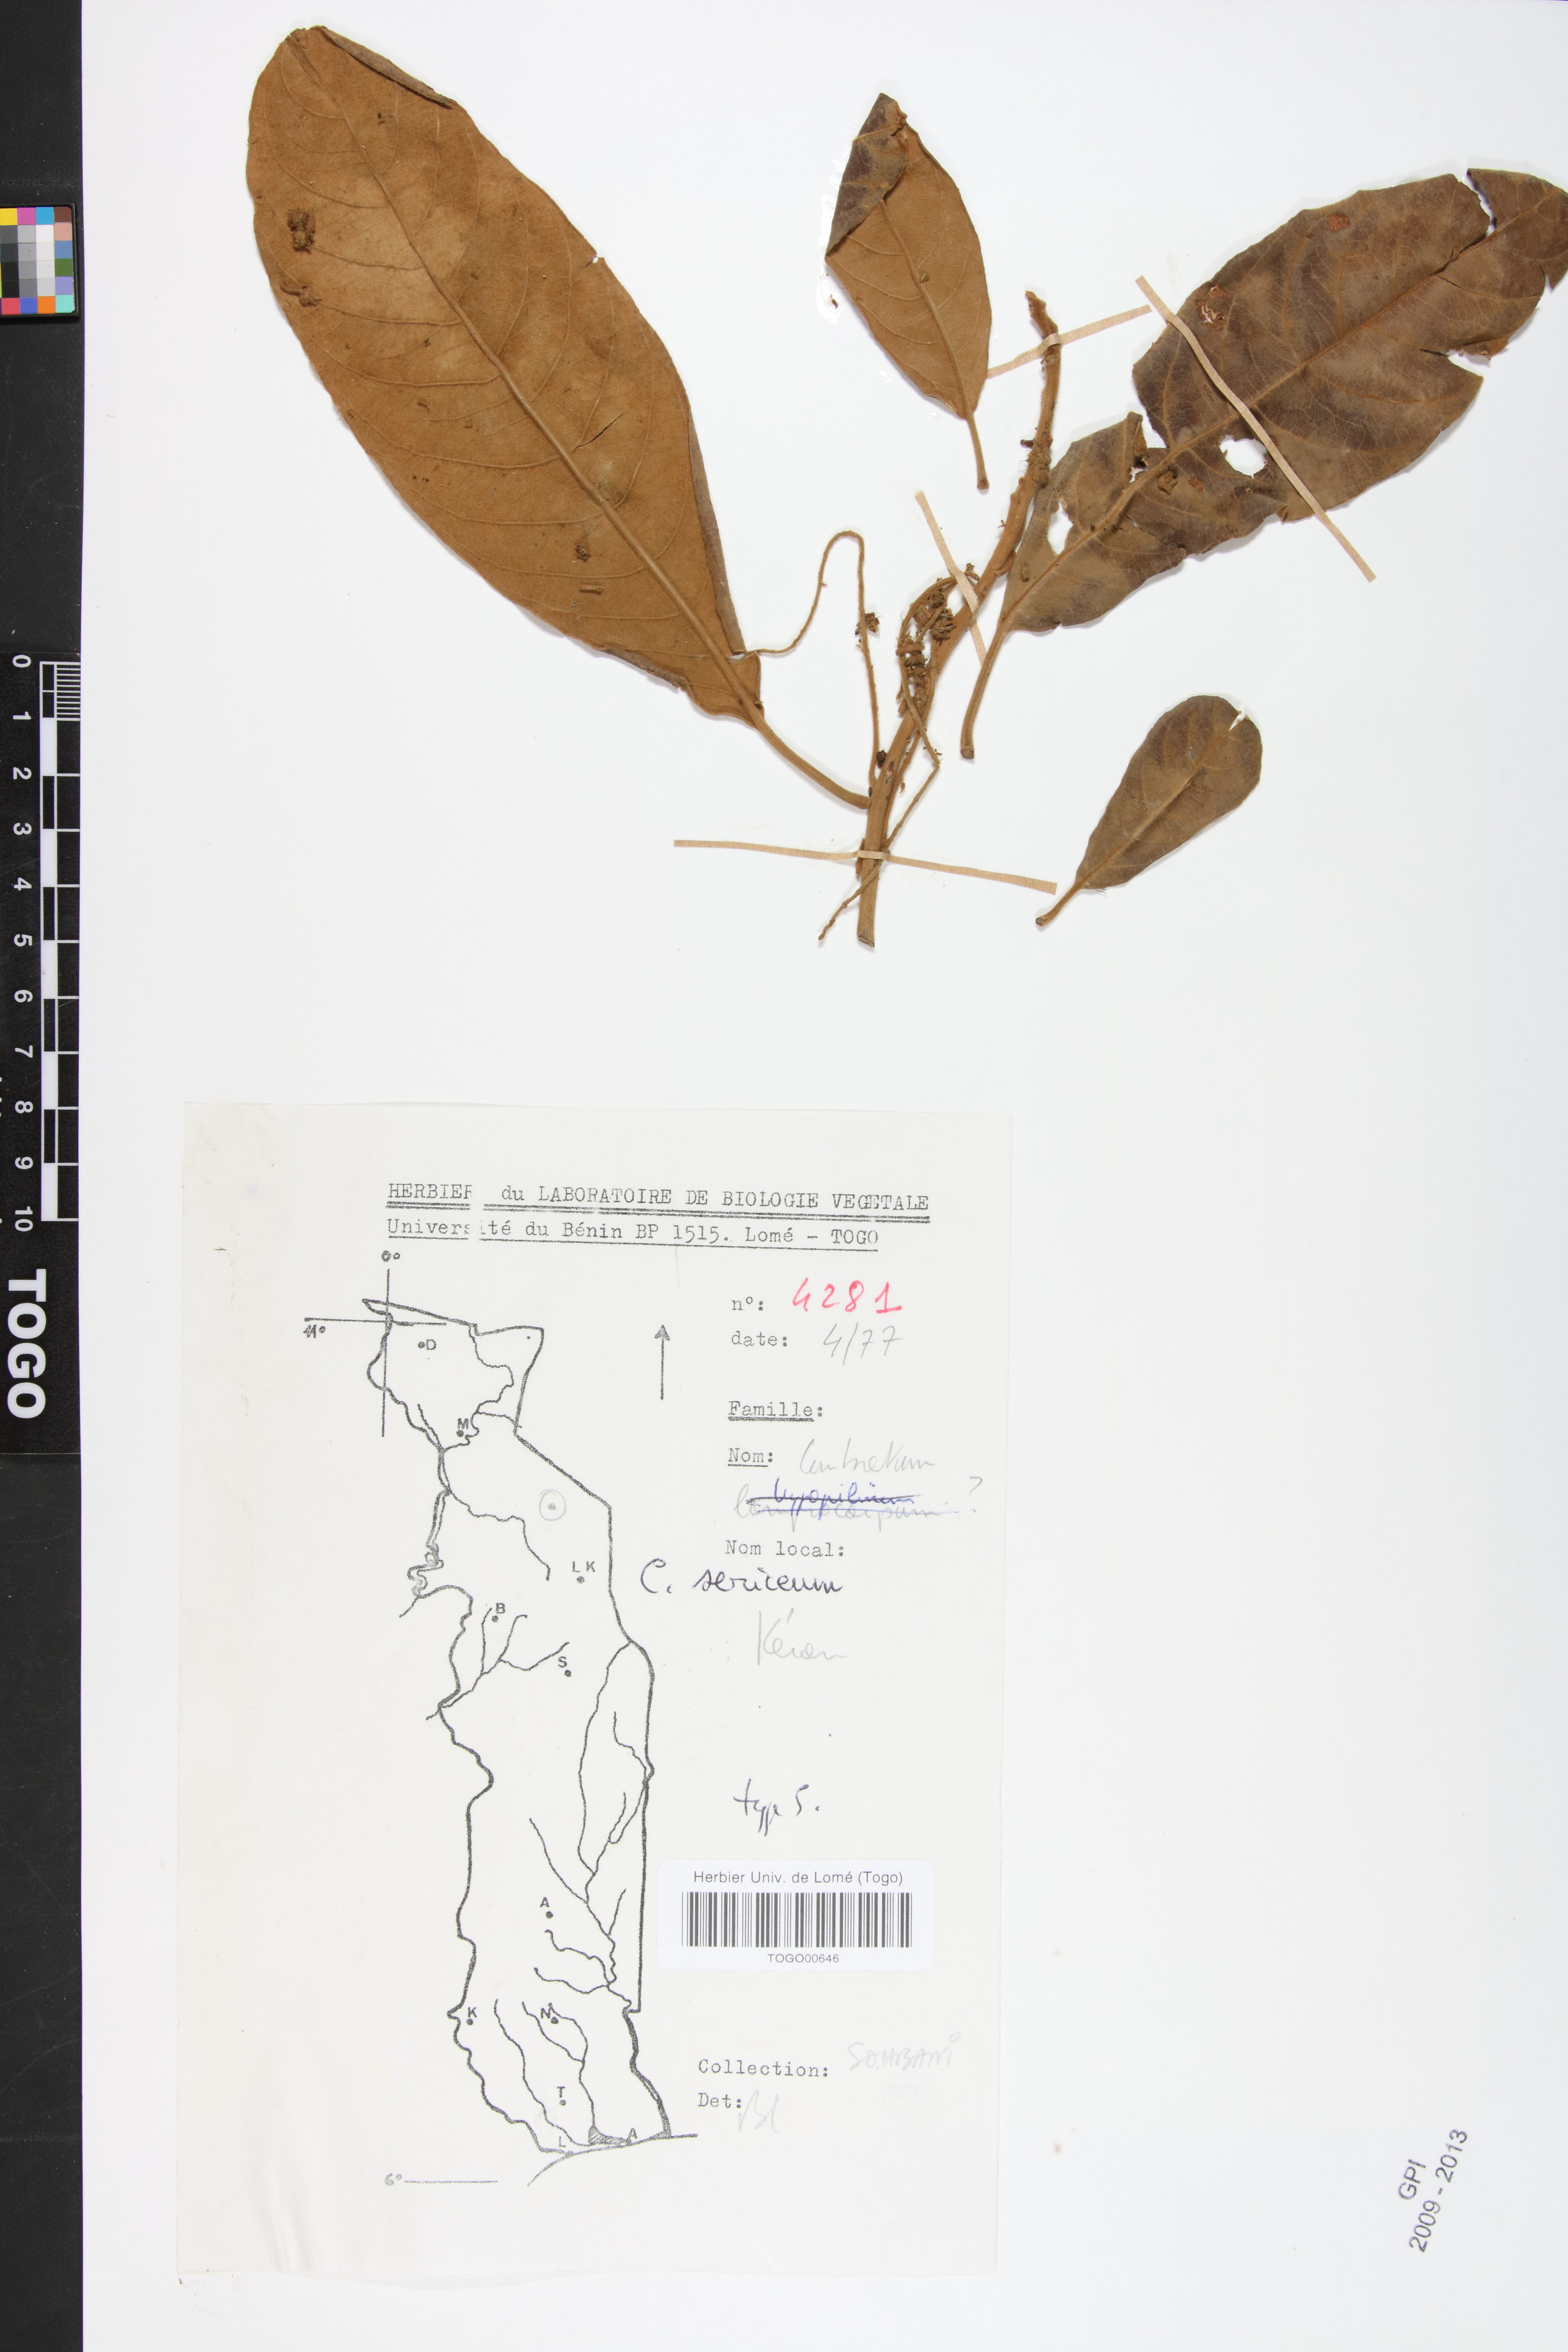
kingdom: Plantae
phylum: Tracheophyta
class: Magnoliopsida
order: Myrtales
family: Combretaceae
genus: Combretum
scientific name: Combretum sericeum
